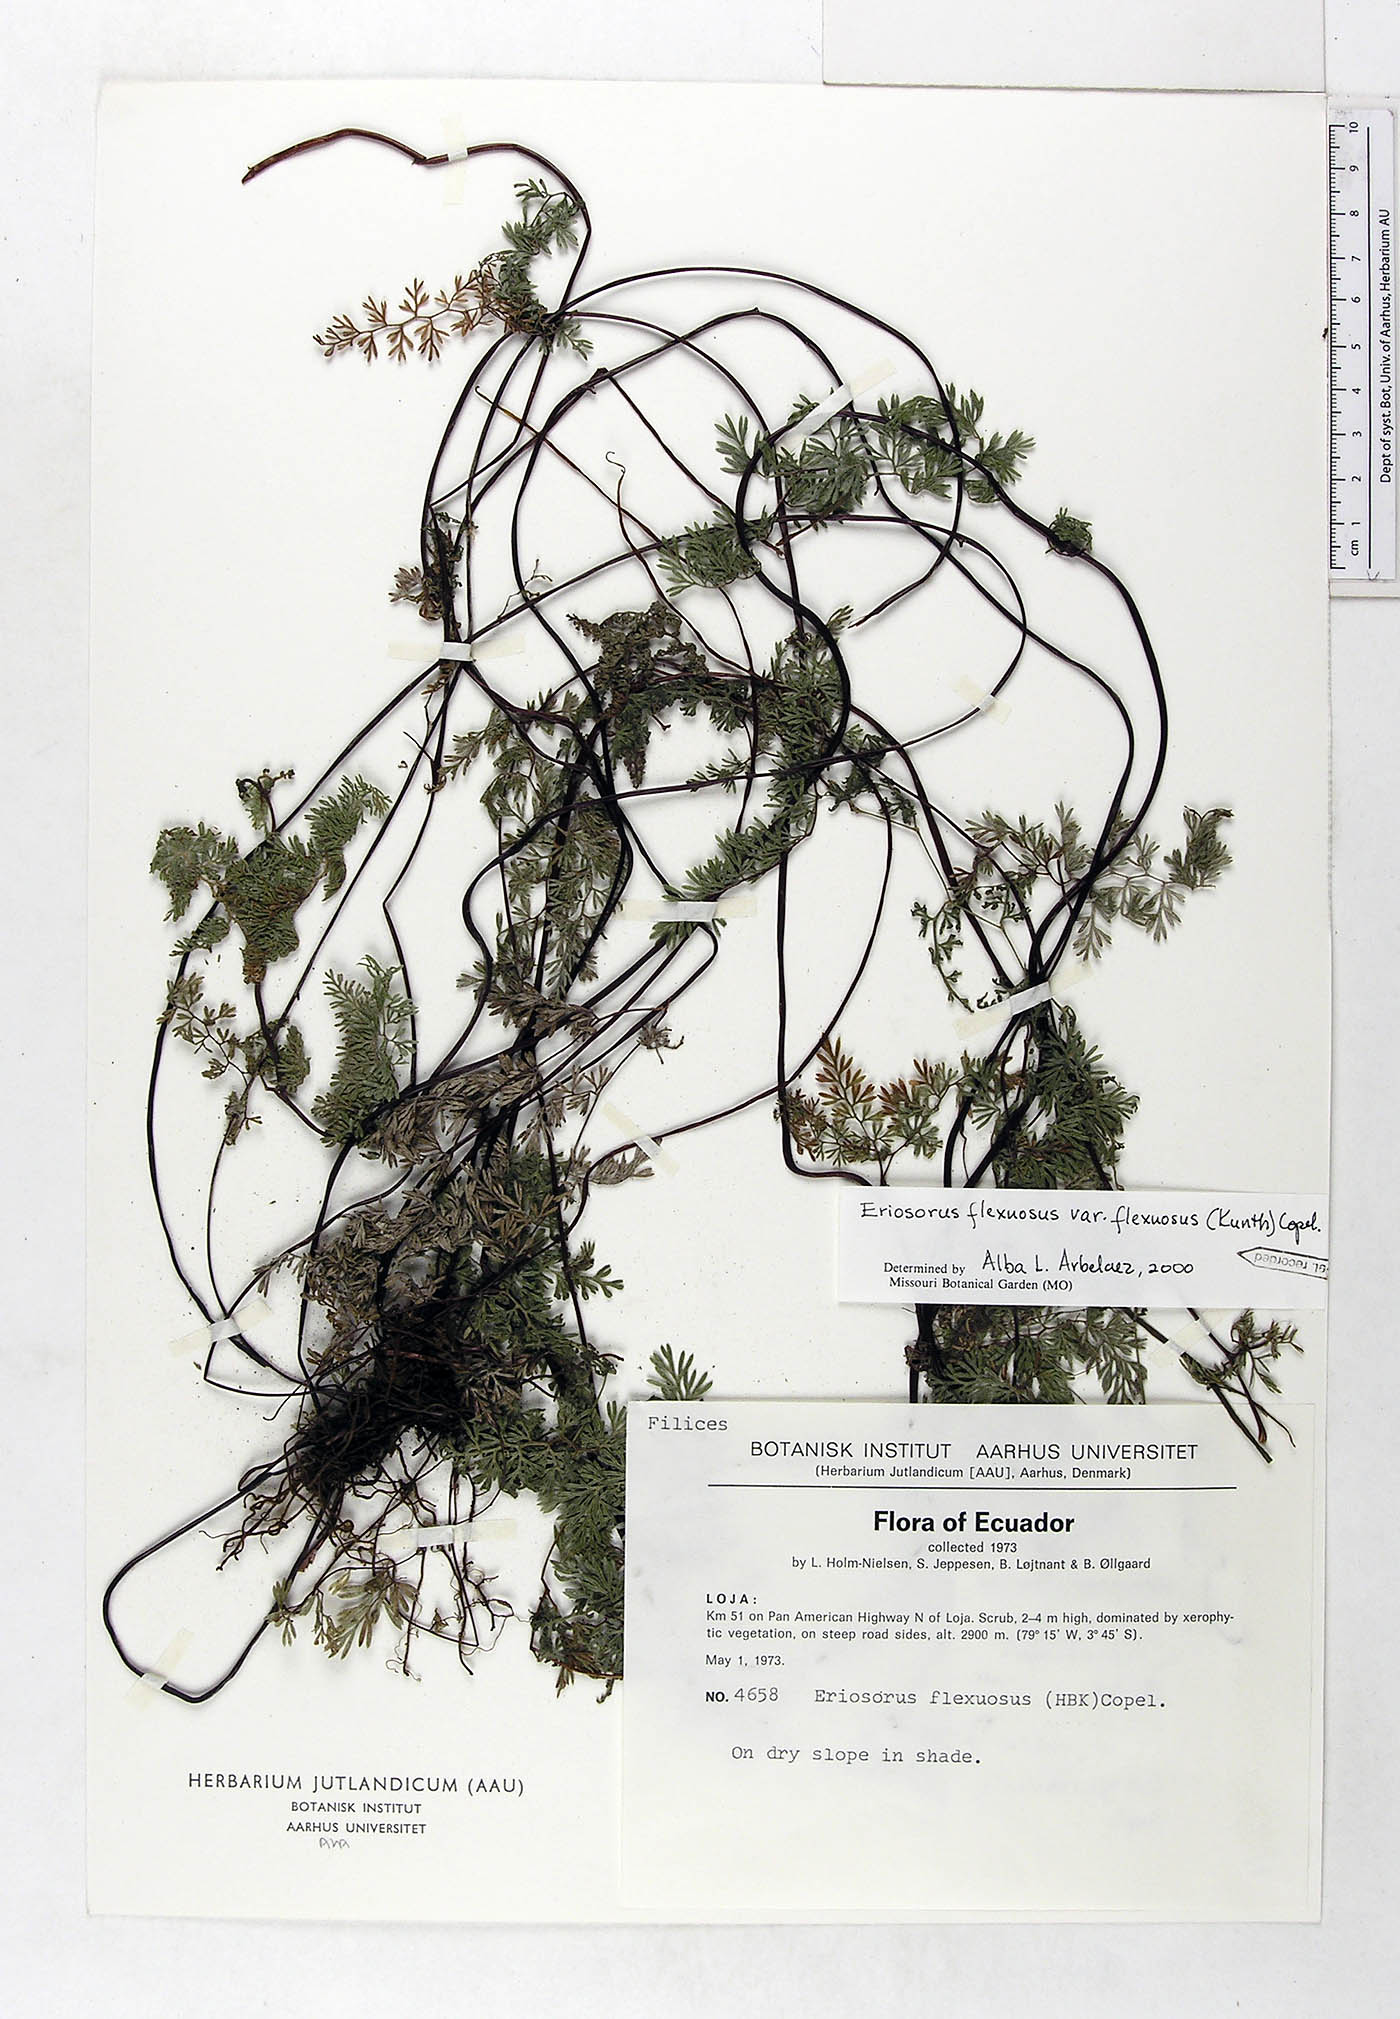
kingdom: Plantae
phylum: Tracheophyta
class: Polypodiopsida
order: Polypodiales
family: Pteridaceae
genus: Jamesonia
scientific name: Jamesonia flexuosa
